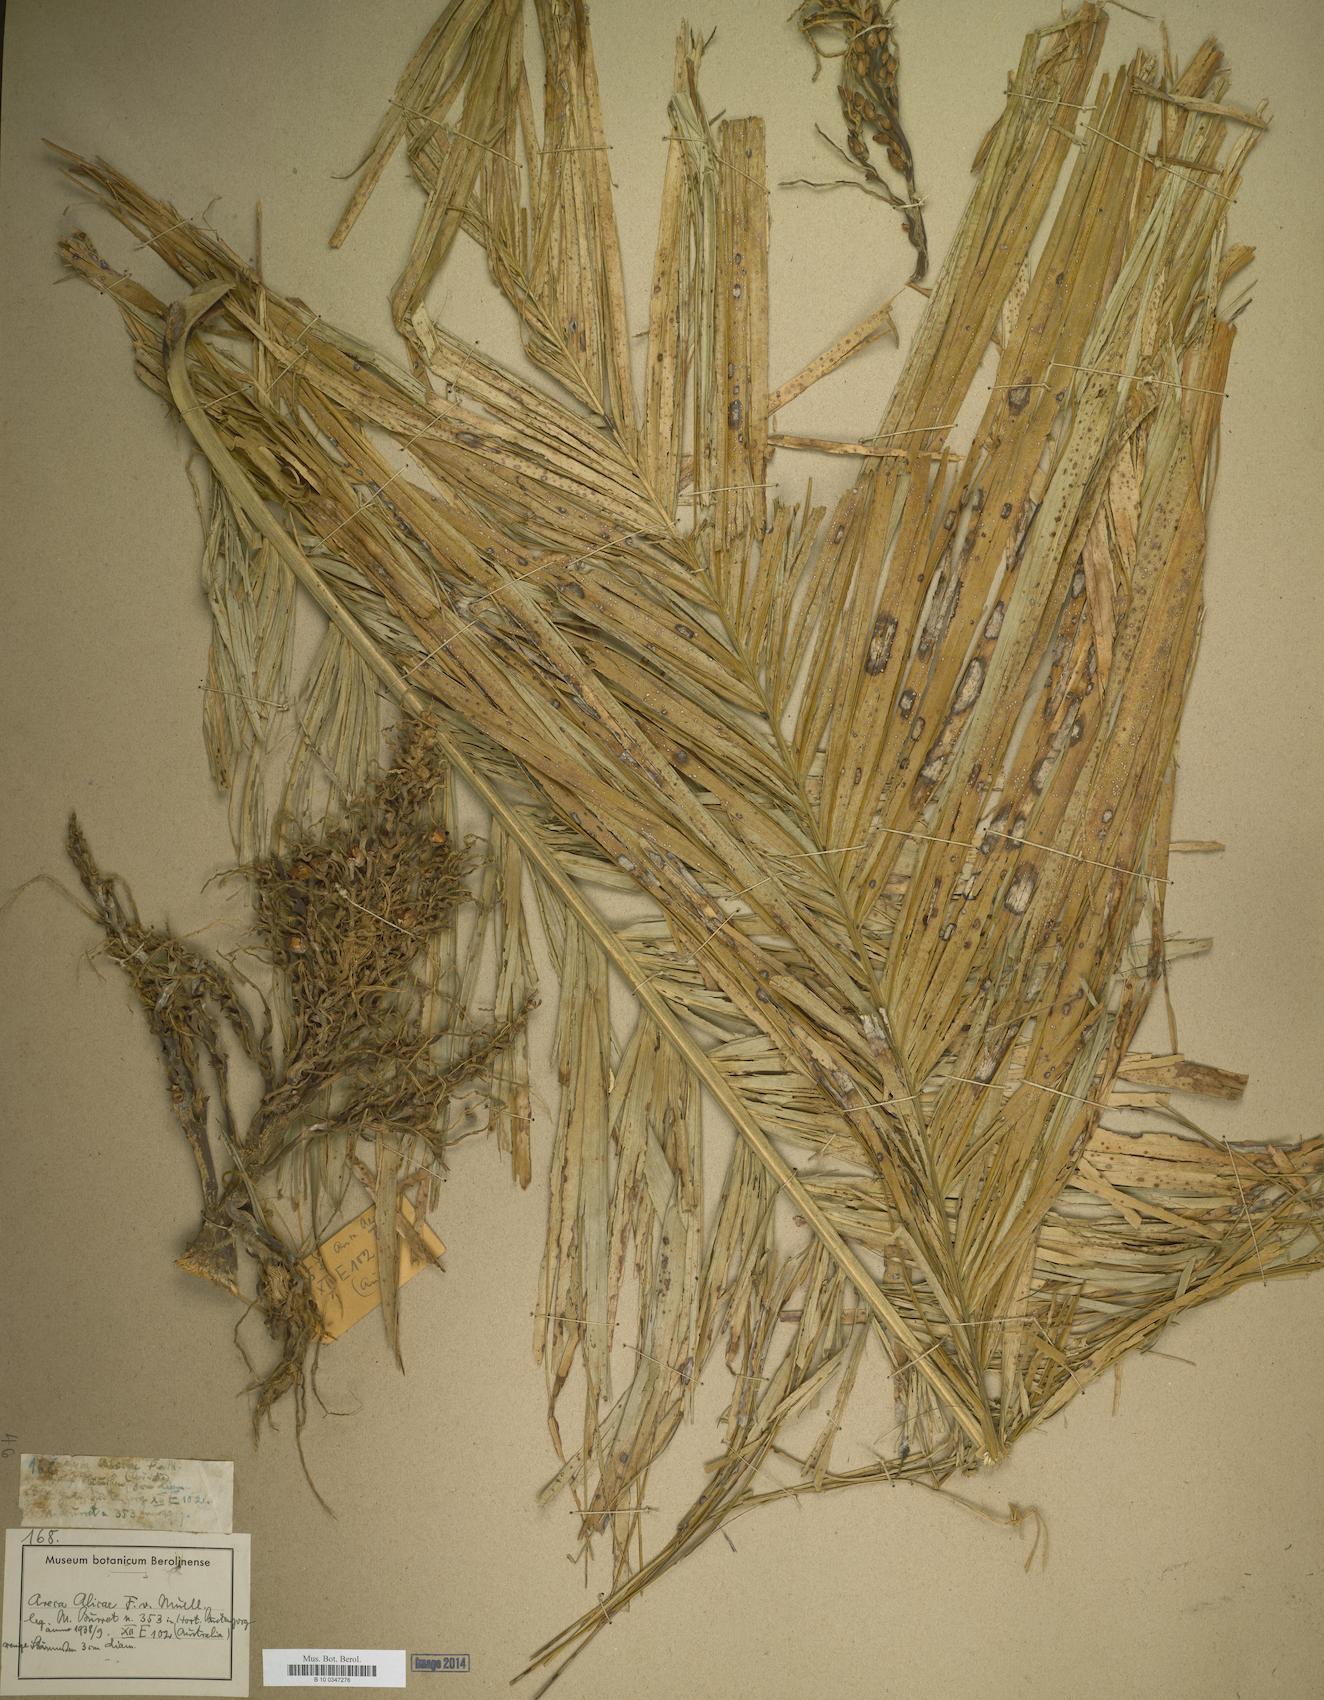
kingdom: Plantae
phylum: Tracheophyta
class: Liliopsida
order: Arecales
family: Arecaceae
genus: Areca
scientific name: Areca
